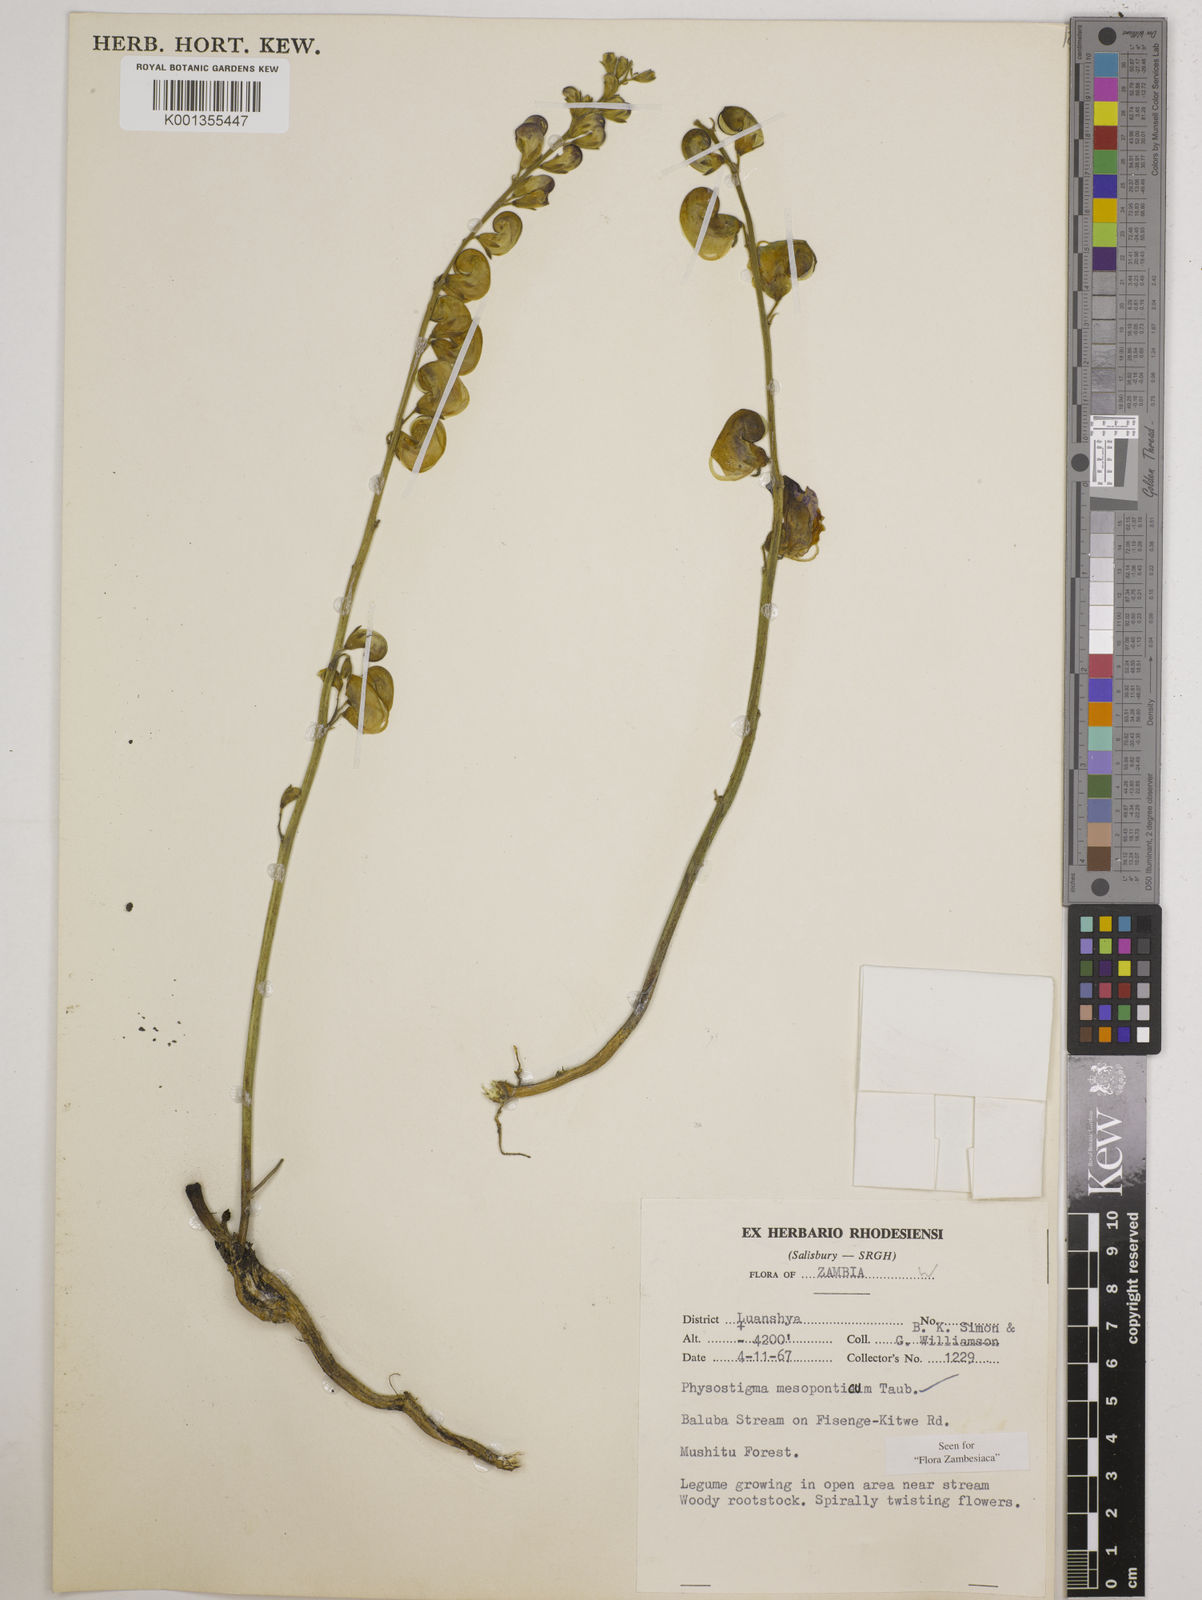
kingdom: Plantae
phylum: Tracheophyta
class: Magnoliopsida
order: Fabales
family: Fabaceae
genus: Physostigma
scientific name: Physostigma mesoponticum
